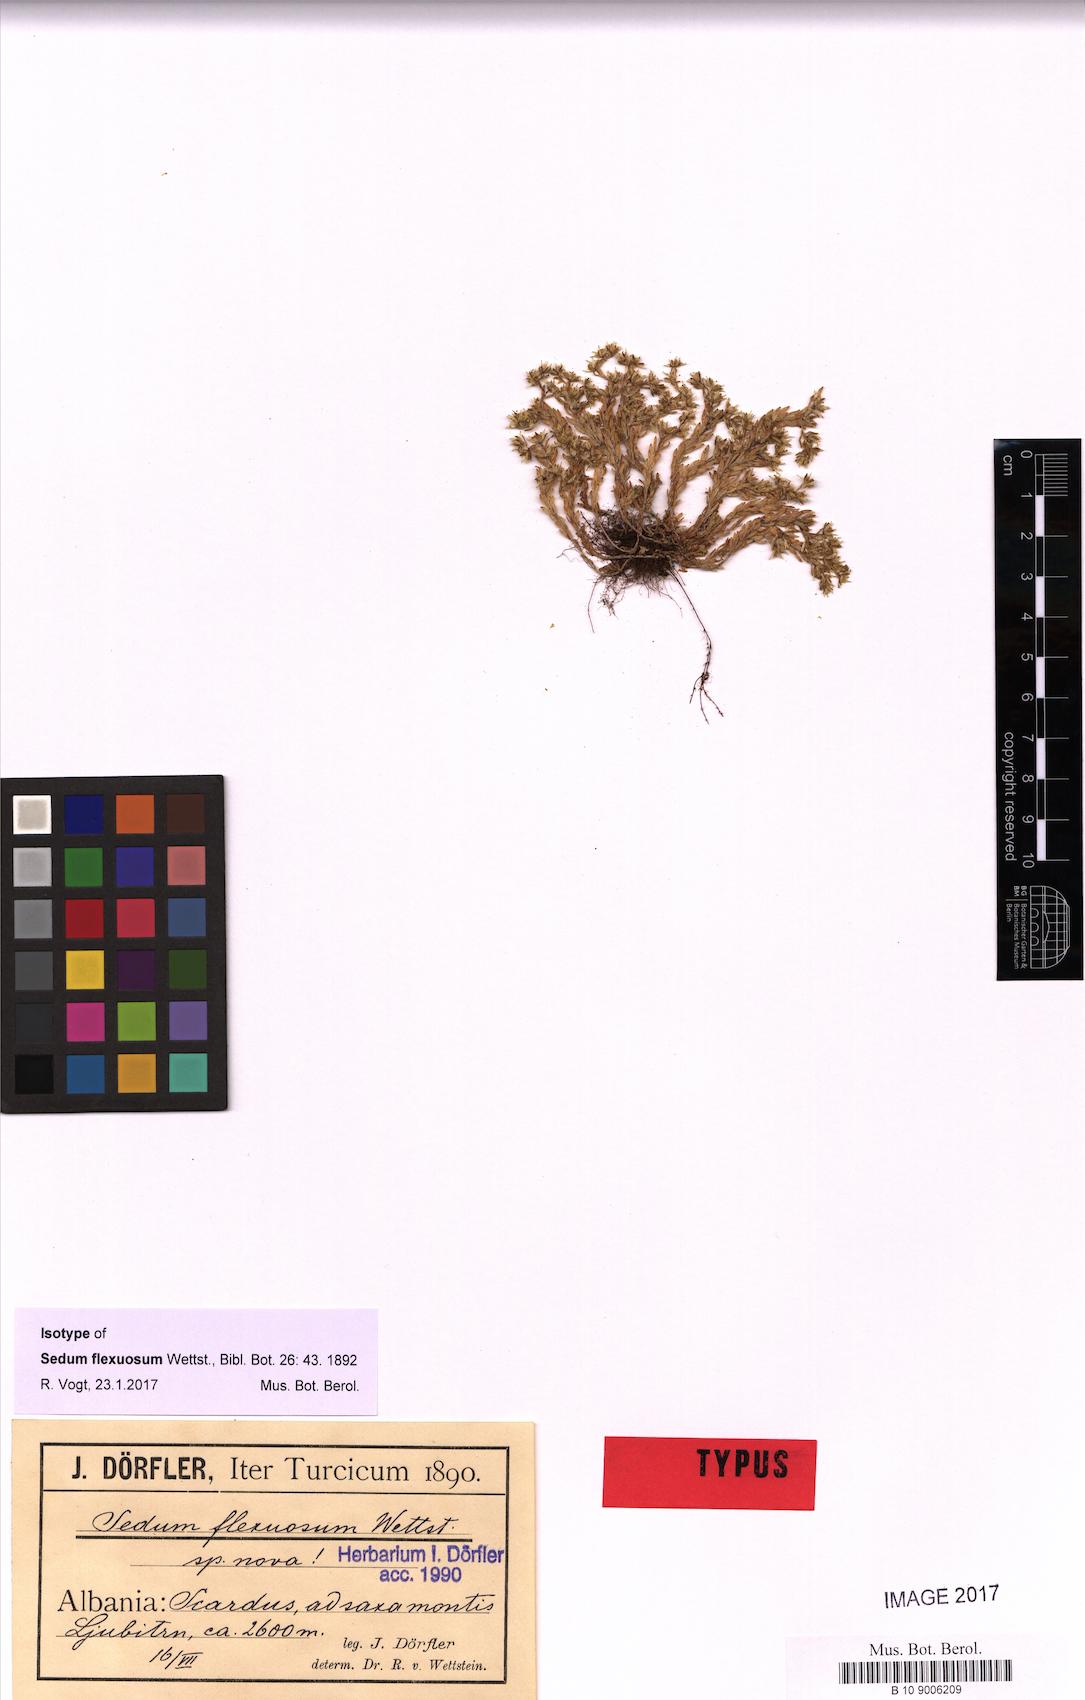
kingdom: Plantae
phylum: Tracheophyta
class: Magnoliopsida
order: Saxifragales
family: Crassulaceae
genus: Sedum
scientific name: Sedum grisebachii
